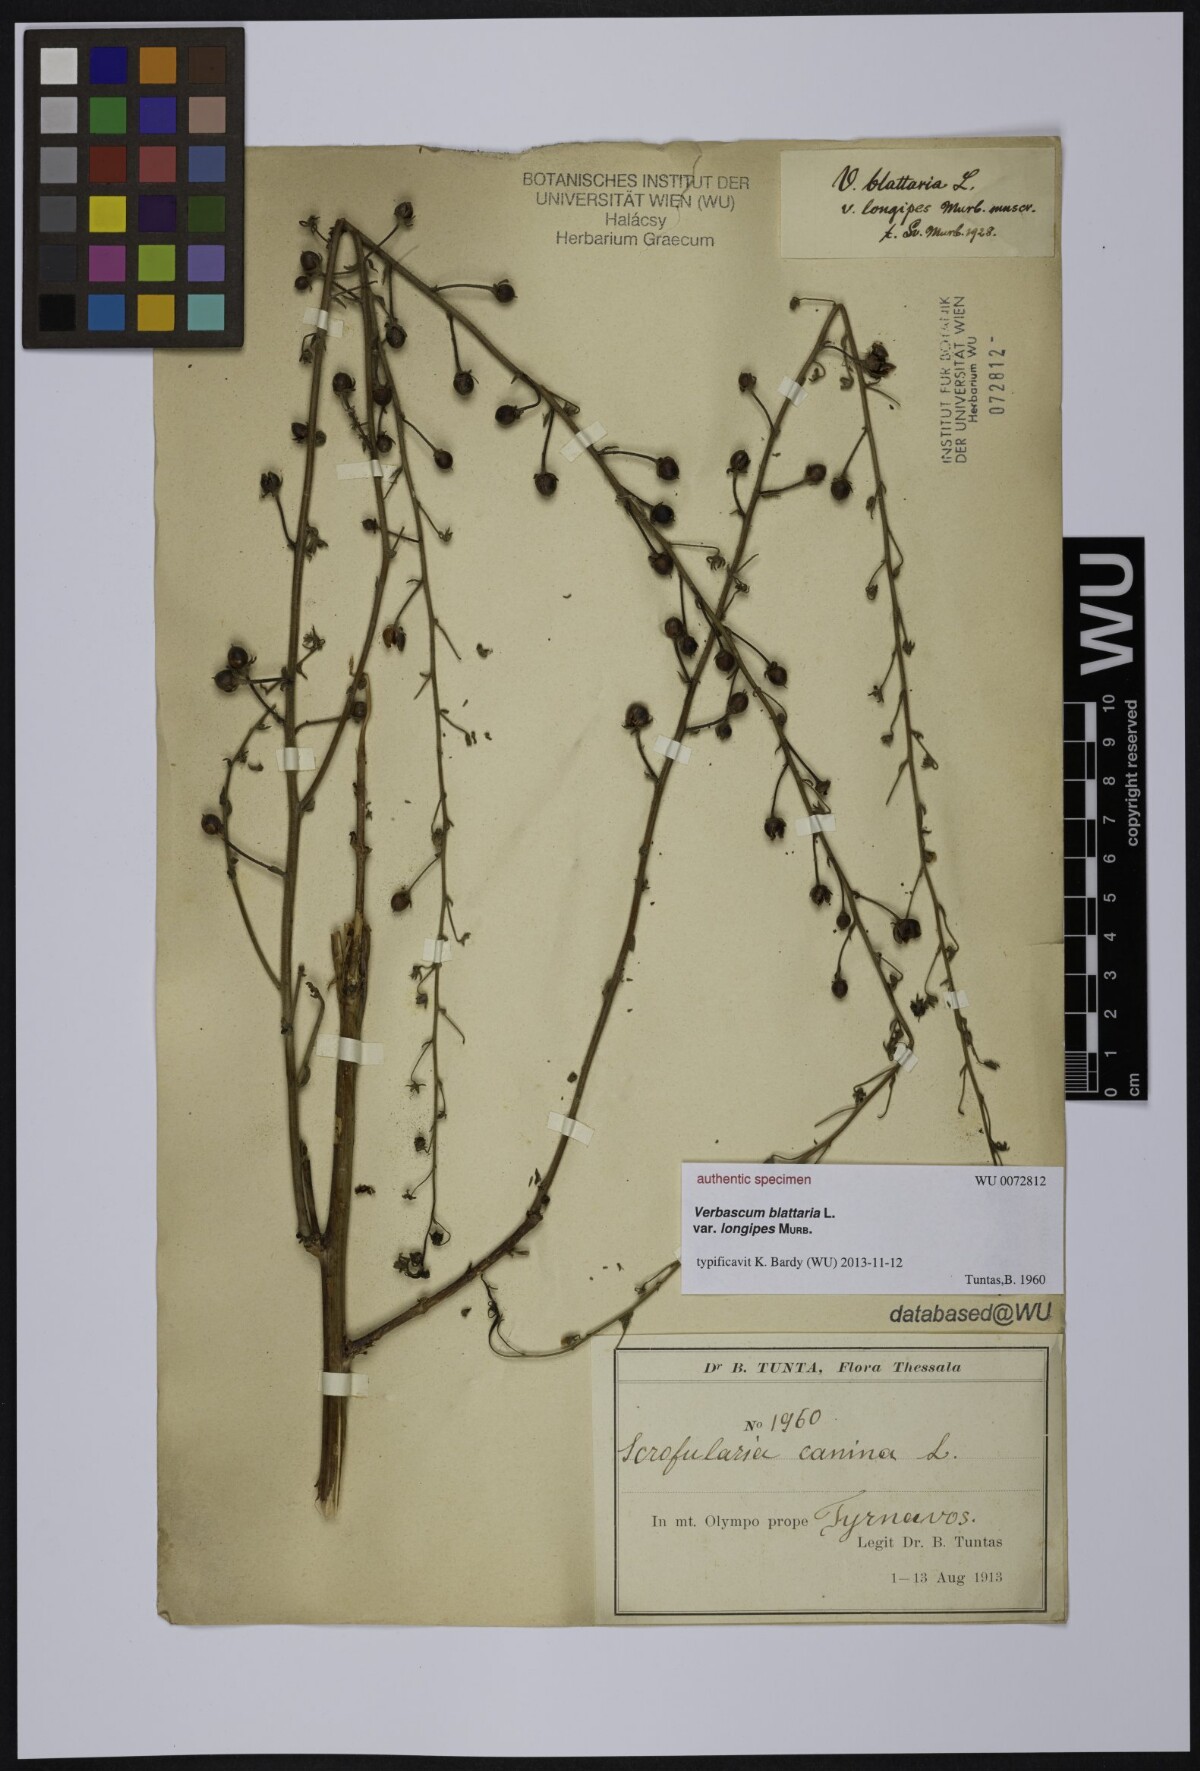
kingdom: Plantae
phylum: Tracheophyta
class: Magnoliopsida
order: Lamiales
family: Scrophulariaceae
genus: Verbascum
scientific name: Verbascum blattaria
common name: Moth mullein
